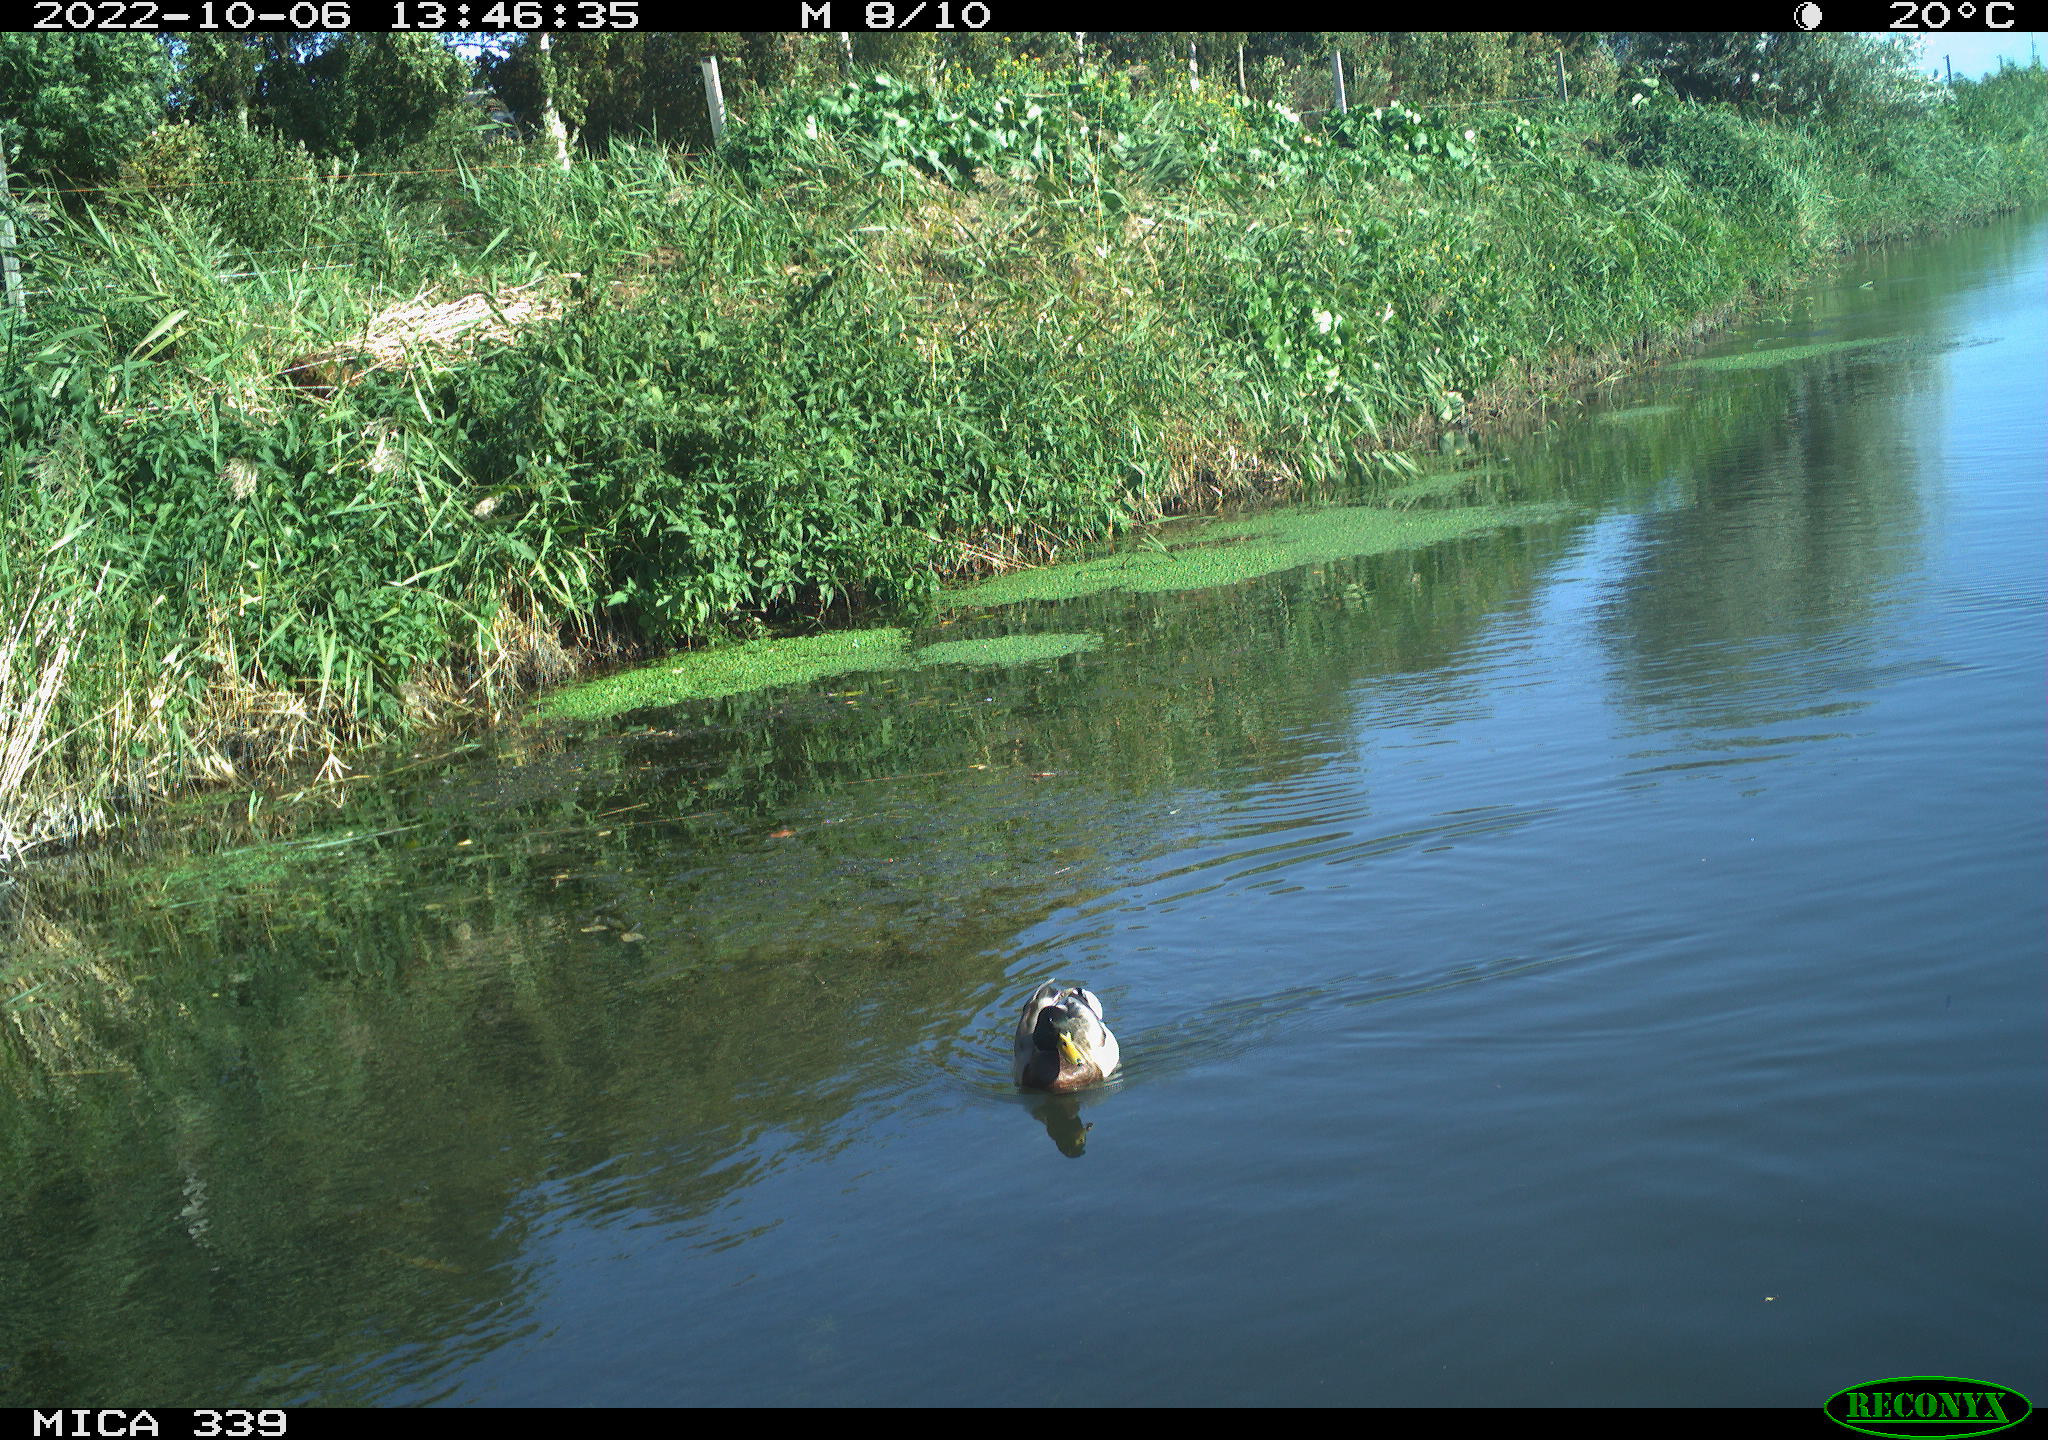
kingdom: Animalia
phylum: Chordata
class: Aves
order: Anseriformes
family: Anatidae
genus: Anas
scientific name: Anas platyrhynchos
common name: Mallard
